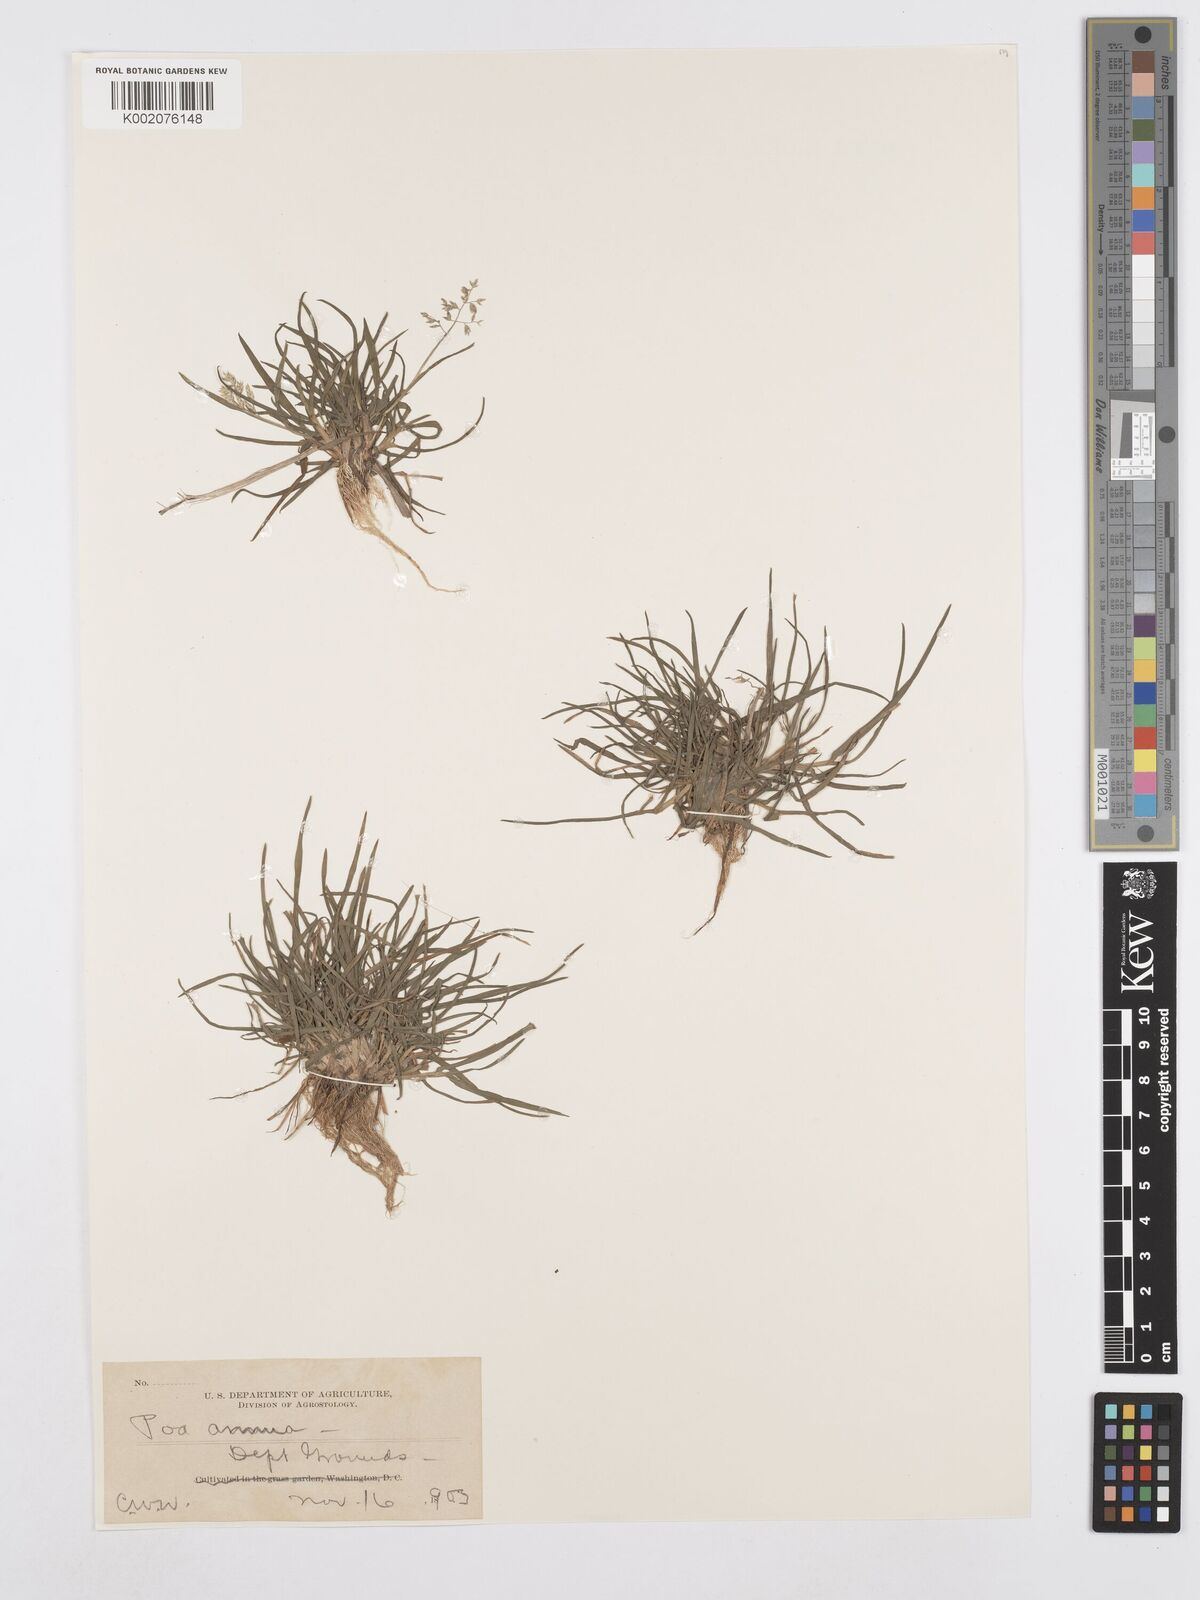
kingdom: Plantae
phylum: Tracheophyta
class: Liliopsida
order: Poales
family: Poaceae
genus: Poa
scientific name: Poa annua
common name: Annual bluegrass
